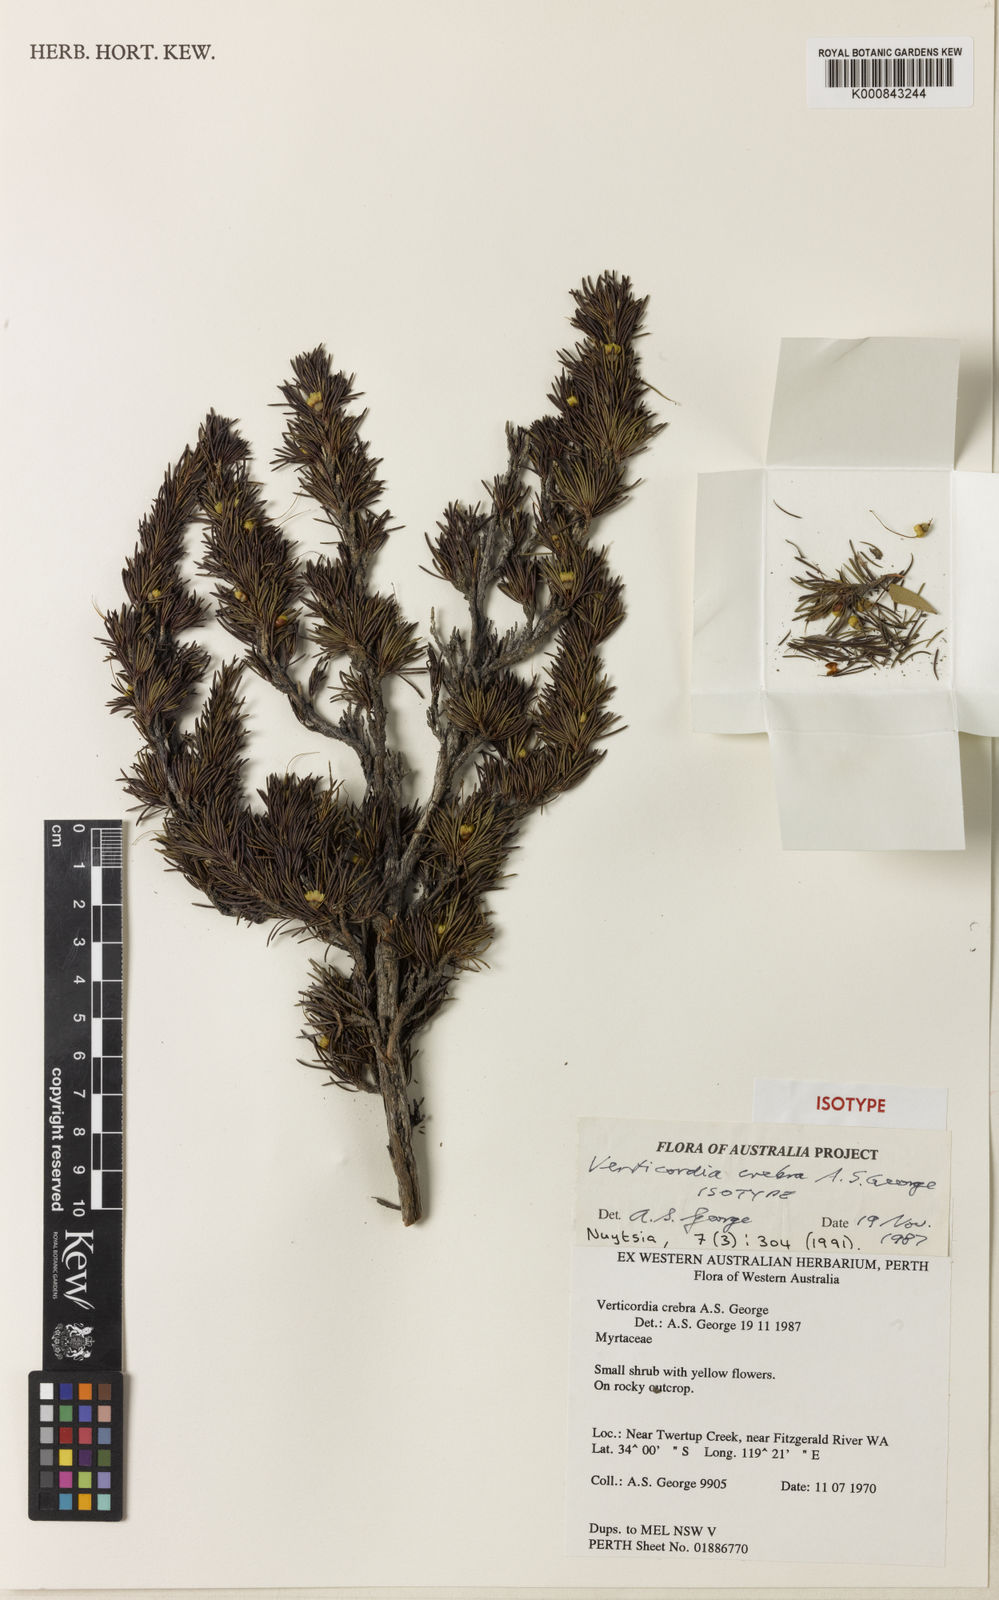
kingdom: Plantae
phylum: Tracheophyta
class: Magnoliopsida
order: Myrtales
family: Myrtaceae
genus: Verticordia
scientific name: Verticordia crebra
